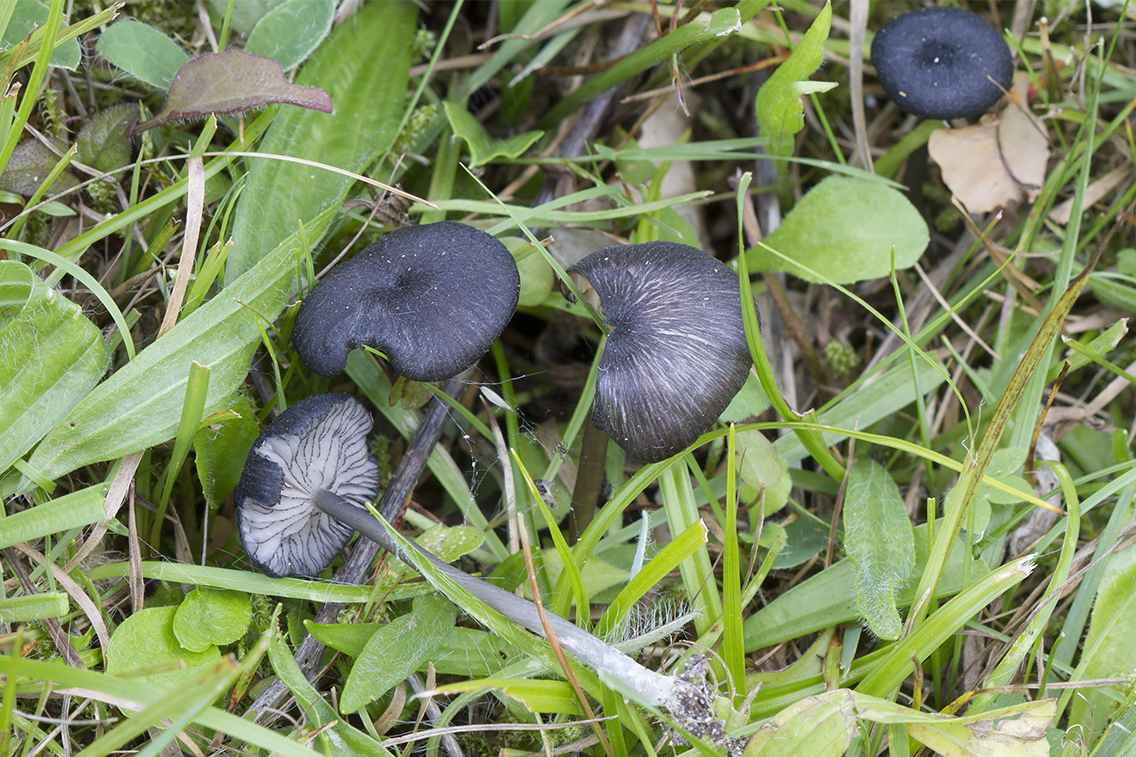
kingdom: Fungi
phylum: Basidiomycota
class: Agaricomycetes
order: Agaricales
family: Entolomataceae
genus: Entoloma
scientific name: Entoloma
